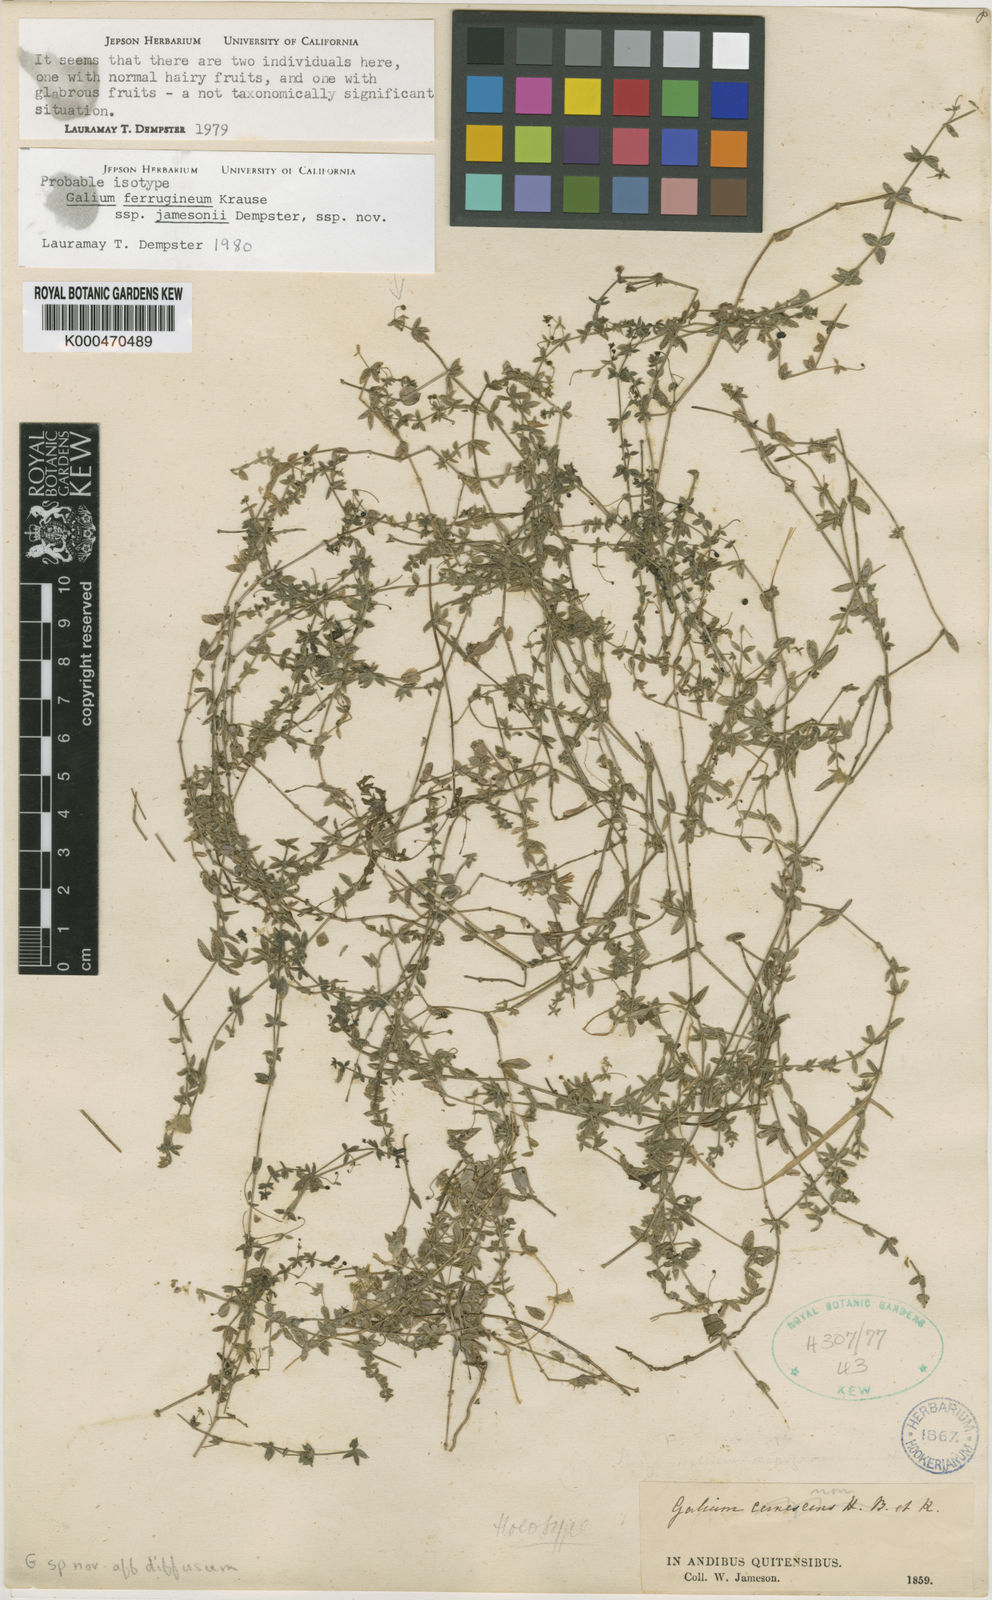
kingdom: Plantae
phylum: Tracheophyta
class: Magnoliopsida
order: Gentianales
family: Rubiaceae
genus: Galium
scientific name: Galium ferrugineum
